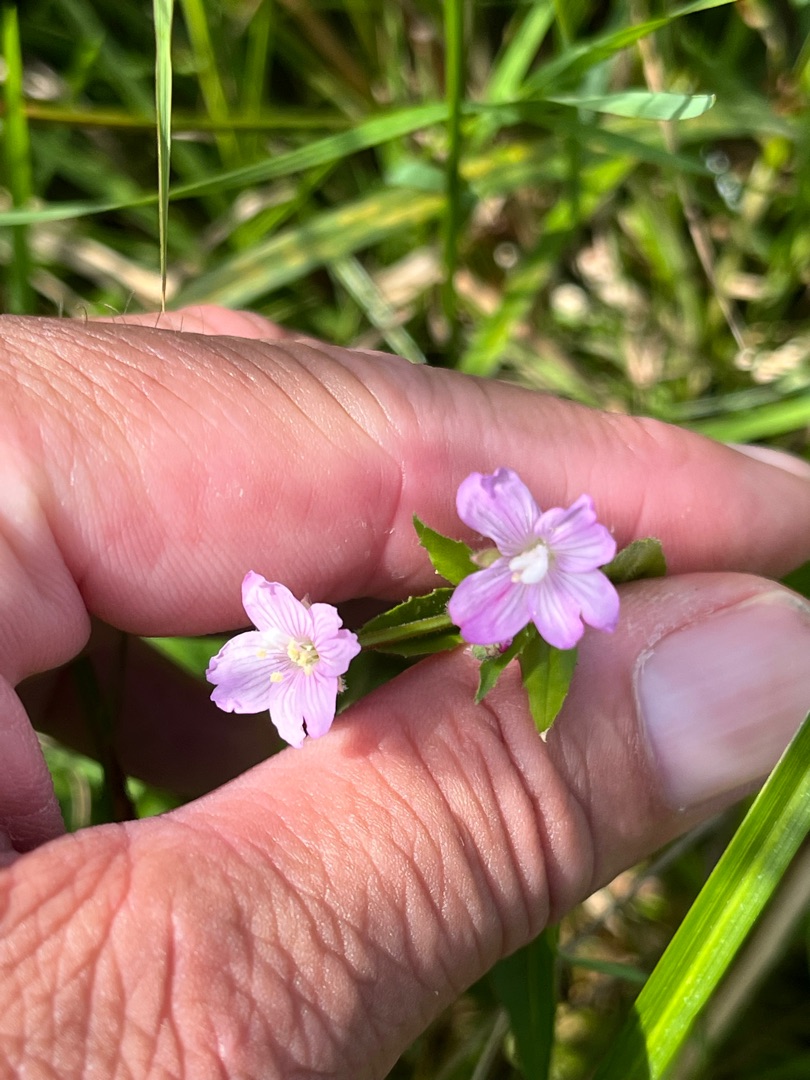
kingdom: Plantae
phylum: Tracheophyta
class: Magnoliopsida
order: Myrtales
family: Onagraceae
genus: Epilobium
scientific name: Epilobium ciliatum
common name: Kirtlet dueurt
